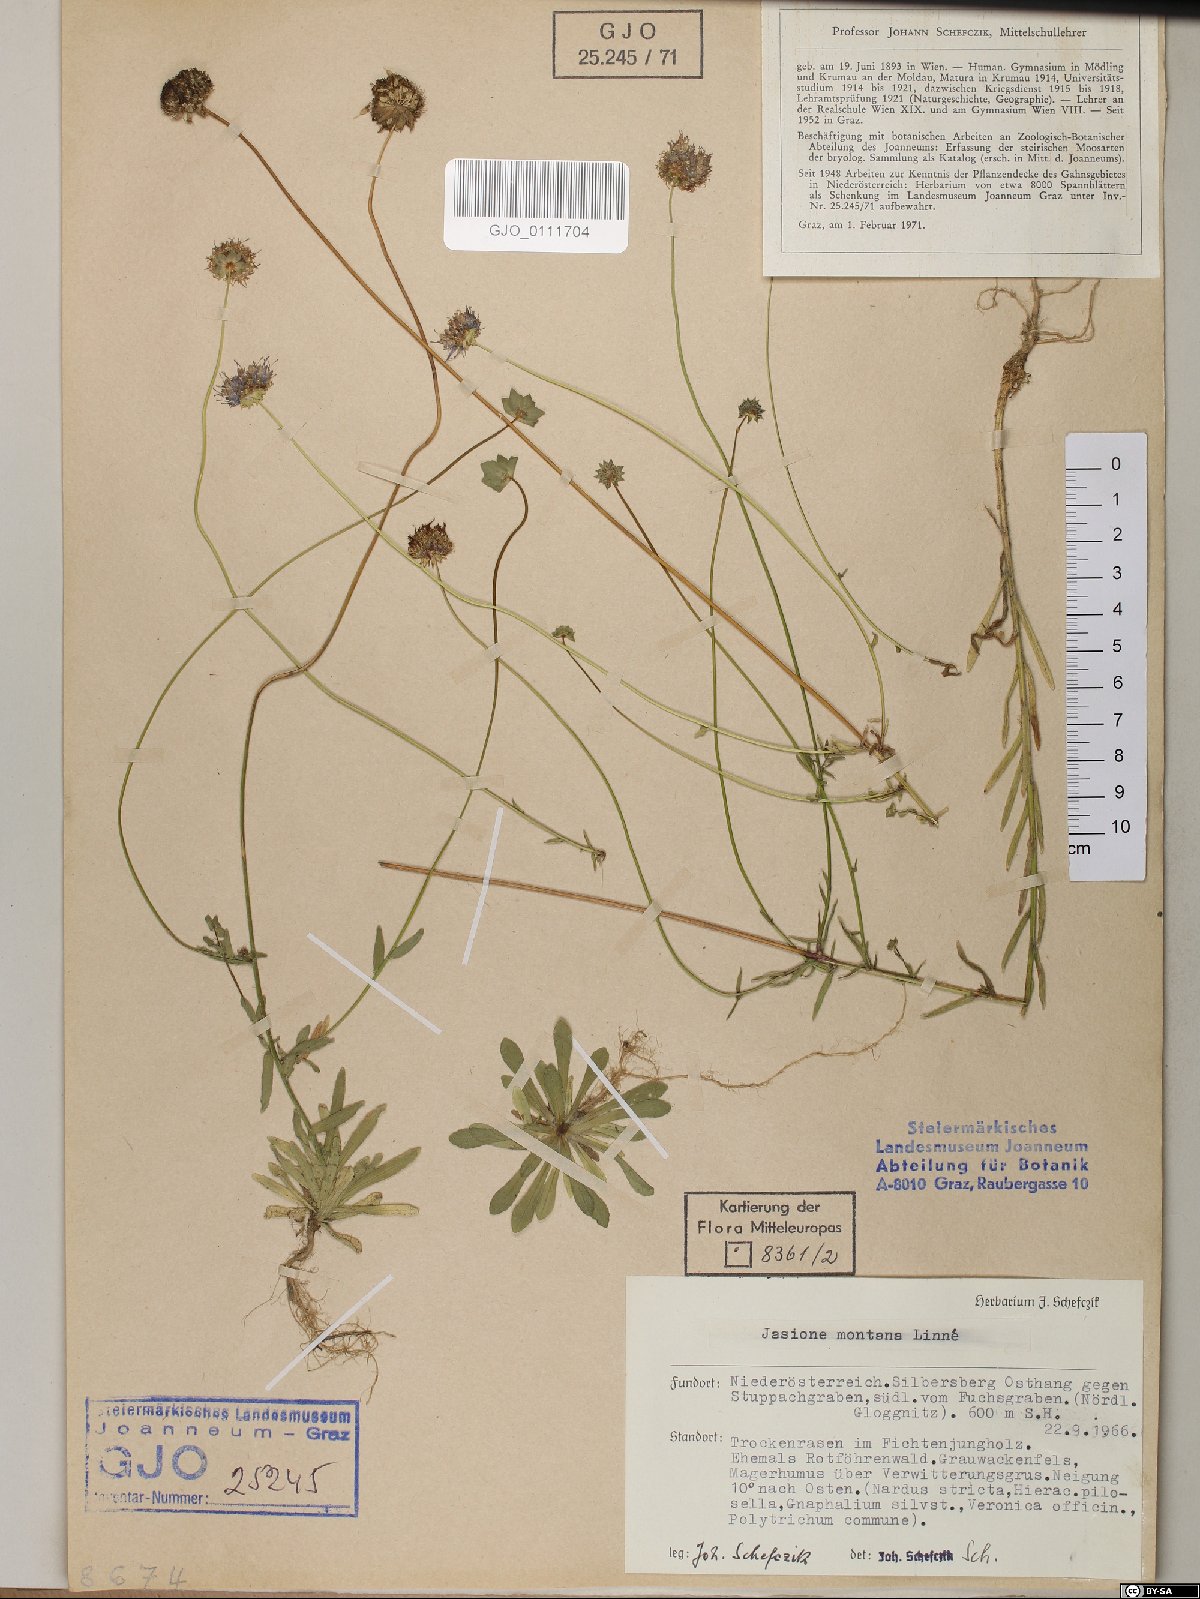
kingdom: Plantae
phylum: Tracheophyta
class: Magnoliopsida
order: Asterales
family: Campanulaceae
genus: Jasione
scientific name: Jasione montana
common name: Sheep's-bit
